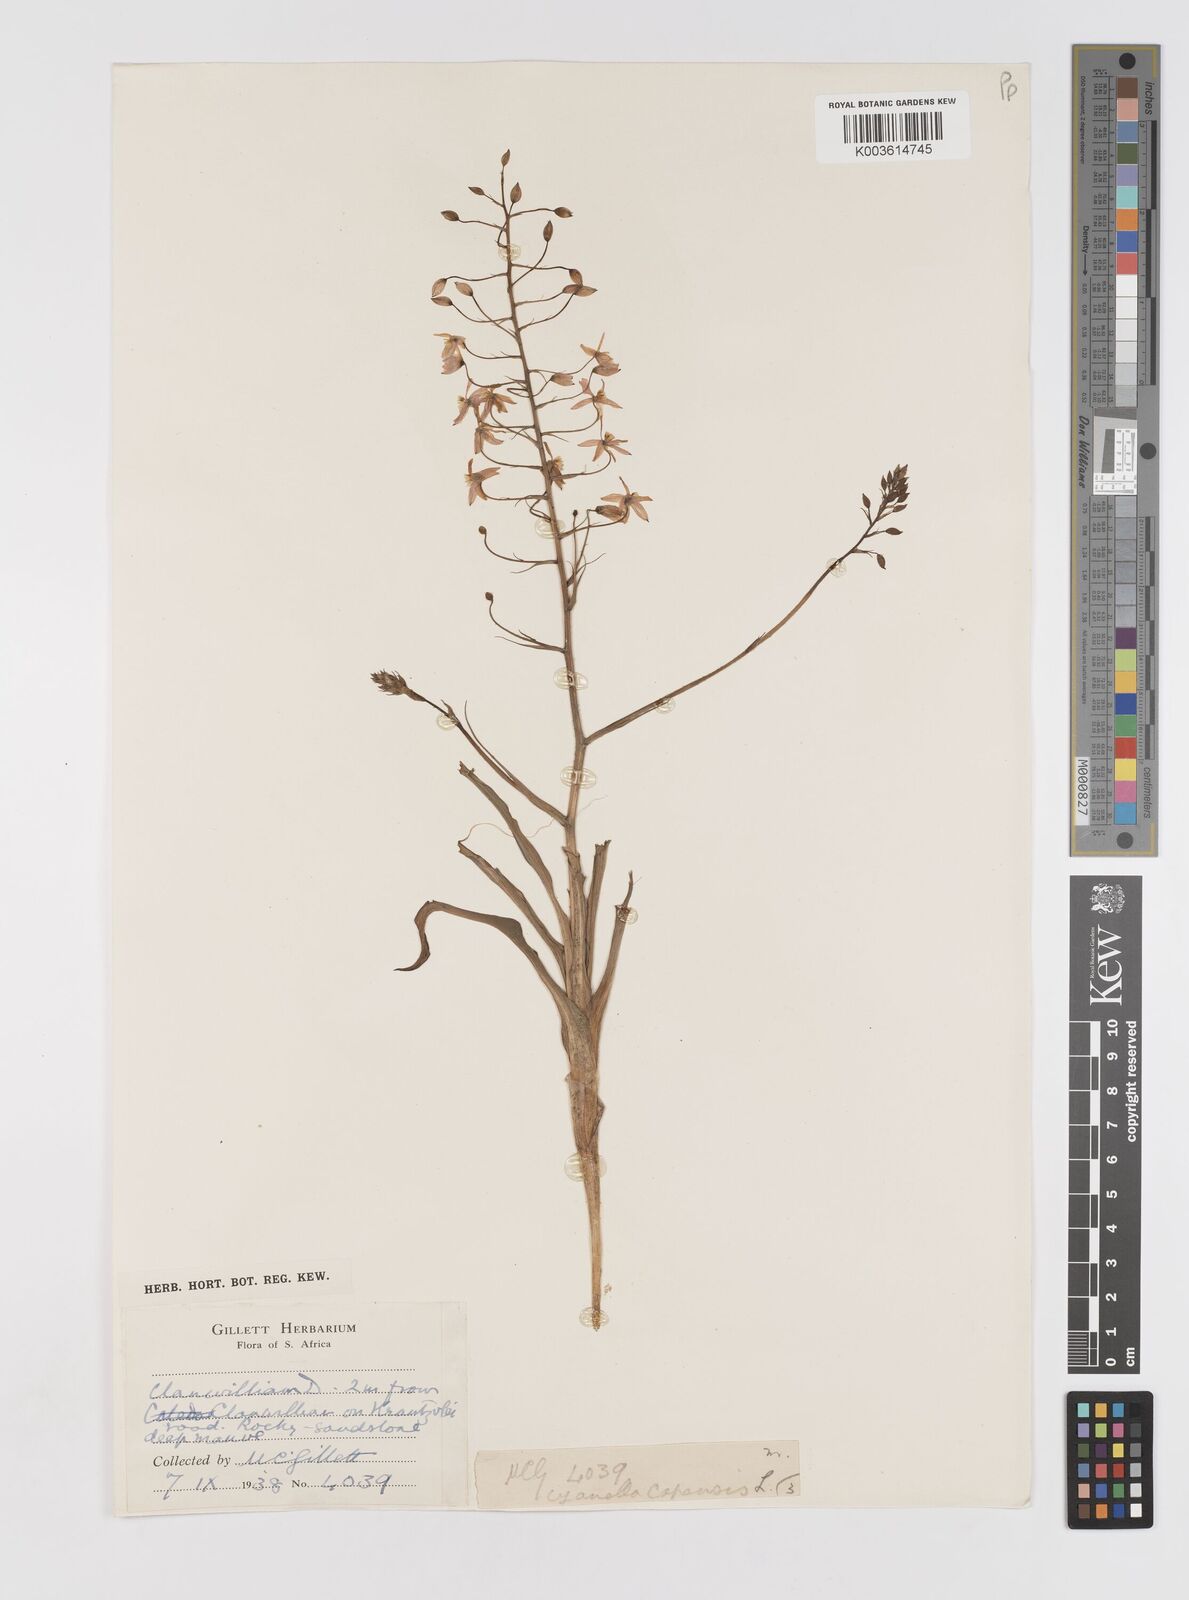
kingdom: Plantae
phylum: Tracheophyta
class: Liliopsida
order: Asparagales
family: Tecophilaeaceae
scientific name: Tecophilaeaceae
